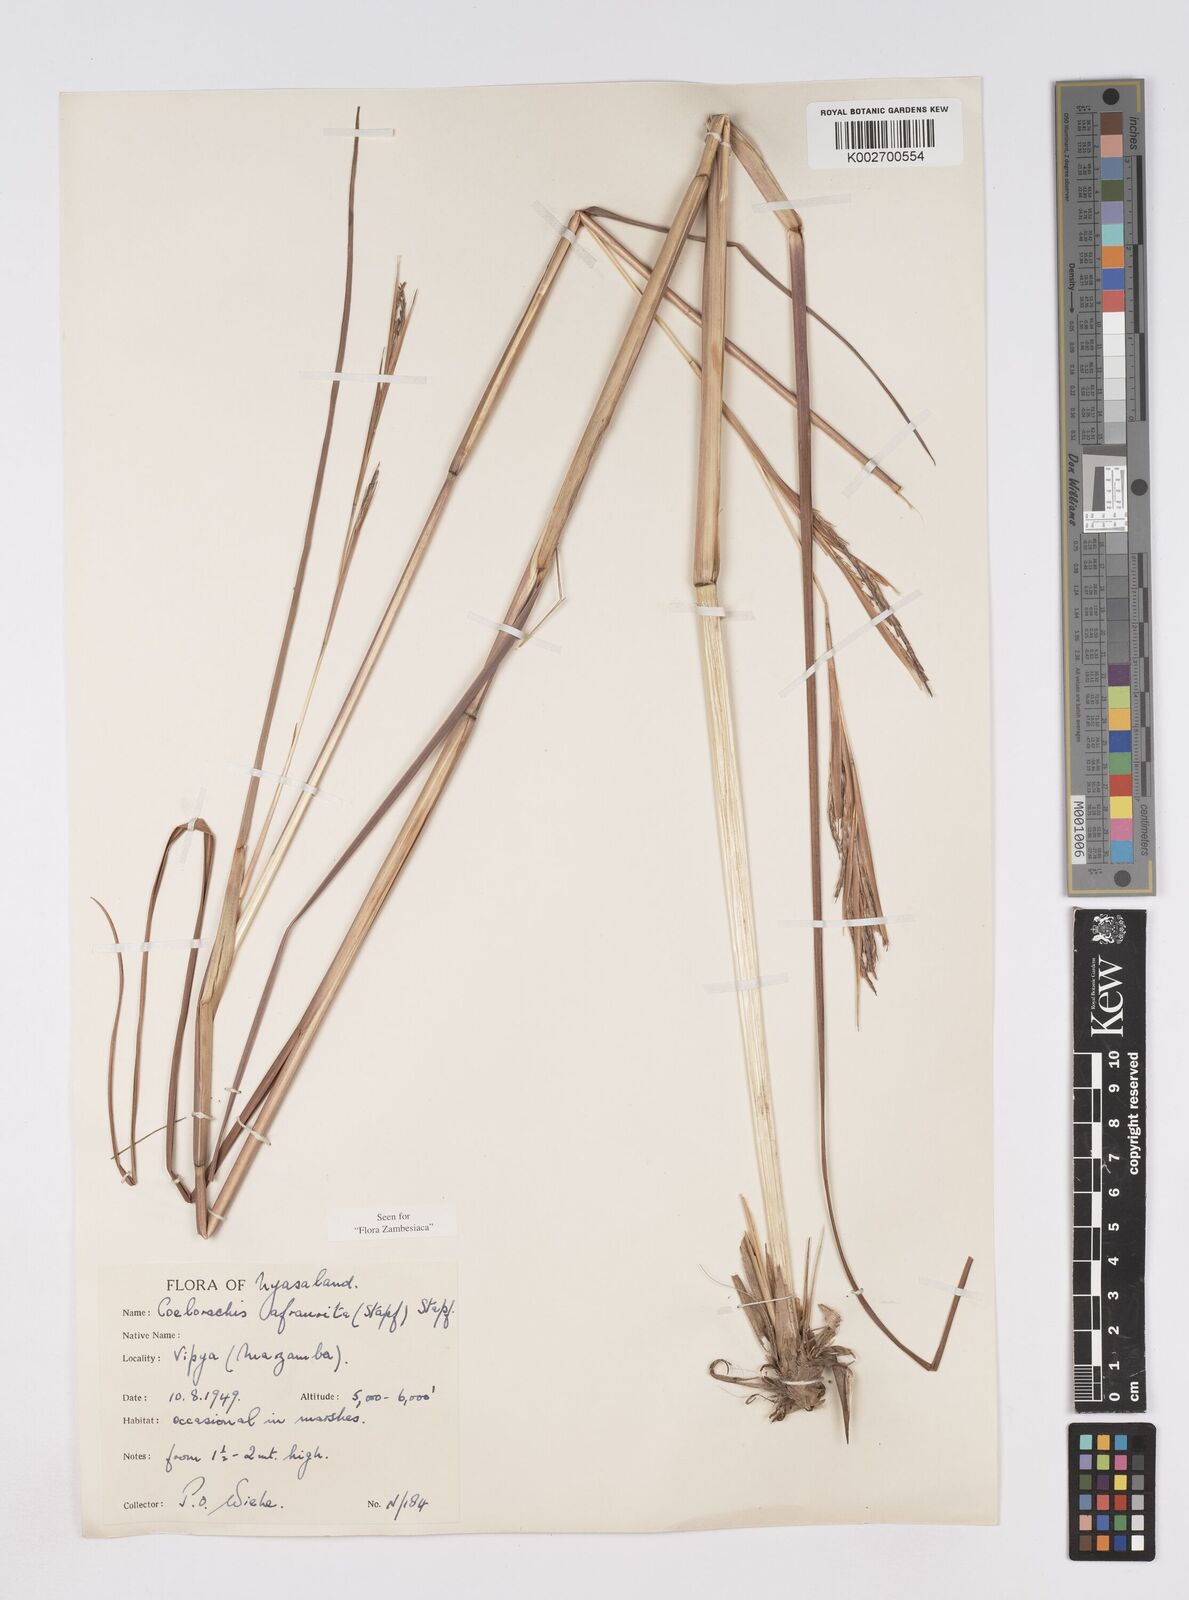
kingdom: Plantae
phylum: Tracheophyta
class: Liliopsida
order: Poales
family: Poaceae
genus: Rottboellia
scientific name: Rottboellia afraurita
